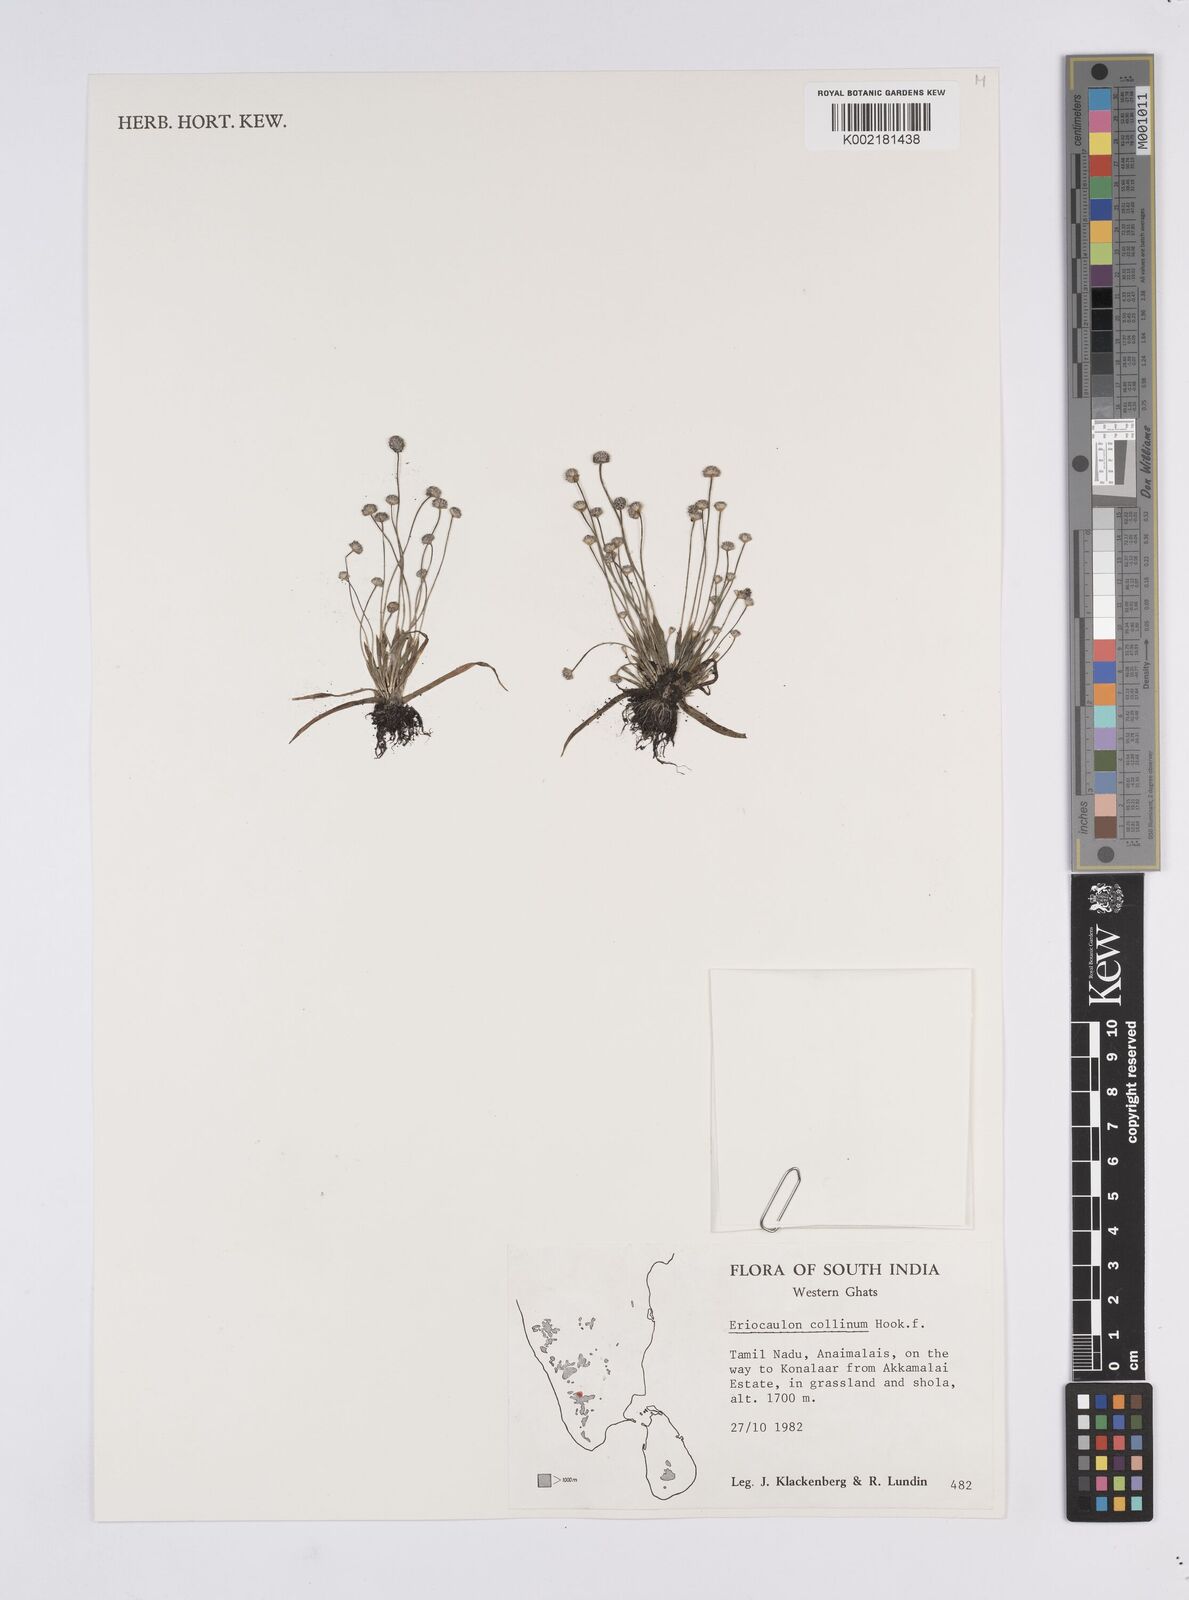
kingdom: Plantae
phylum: Tracheophyta
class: Liliopsida
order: Poales
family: Eriocaulaceae
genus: Eriocaulon
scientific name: Eriocaulon odoratum
